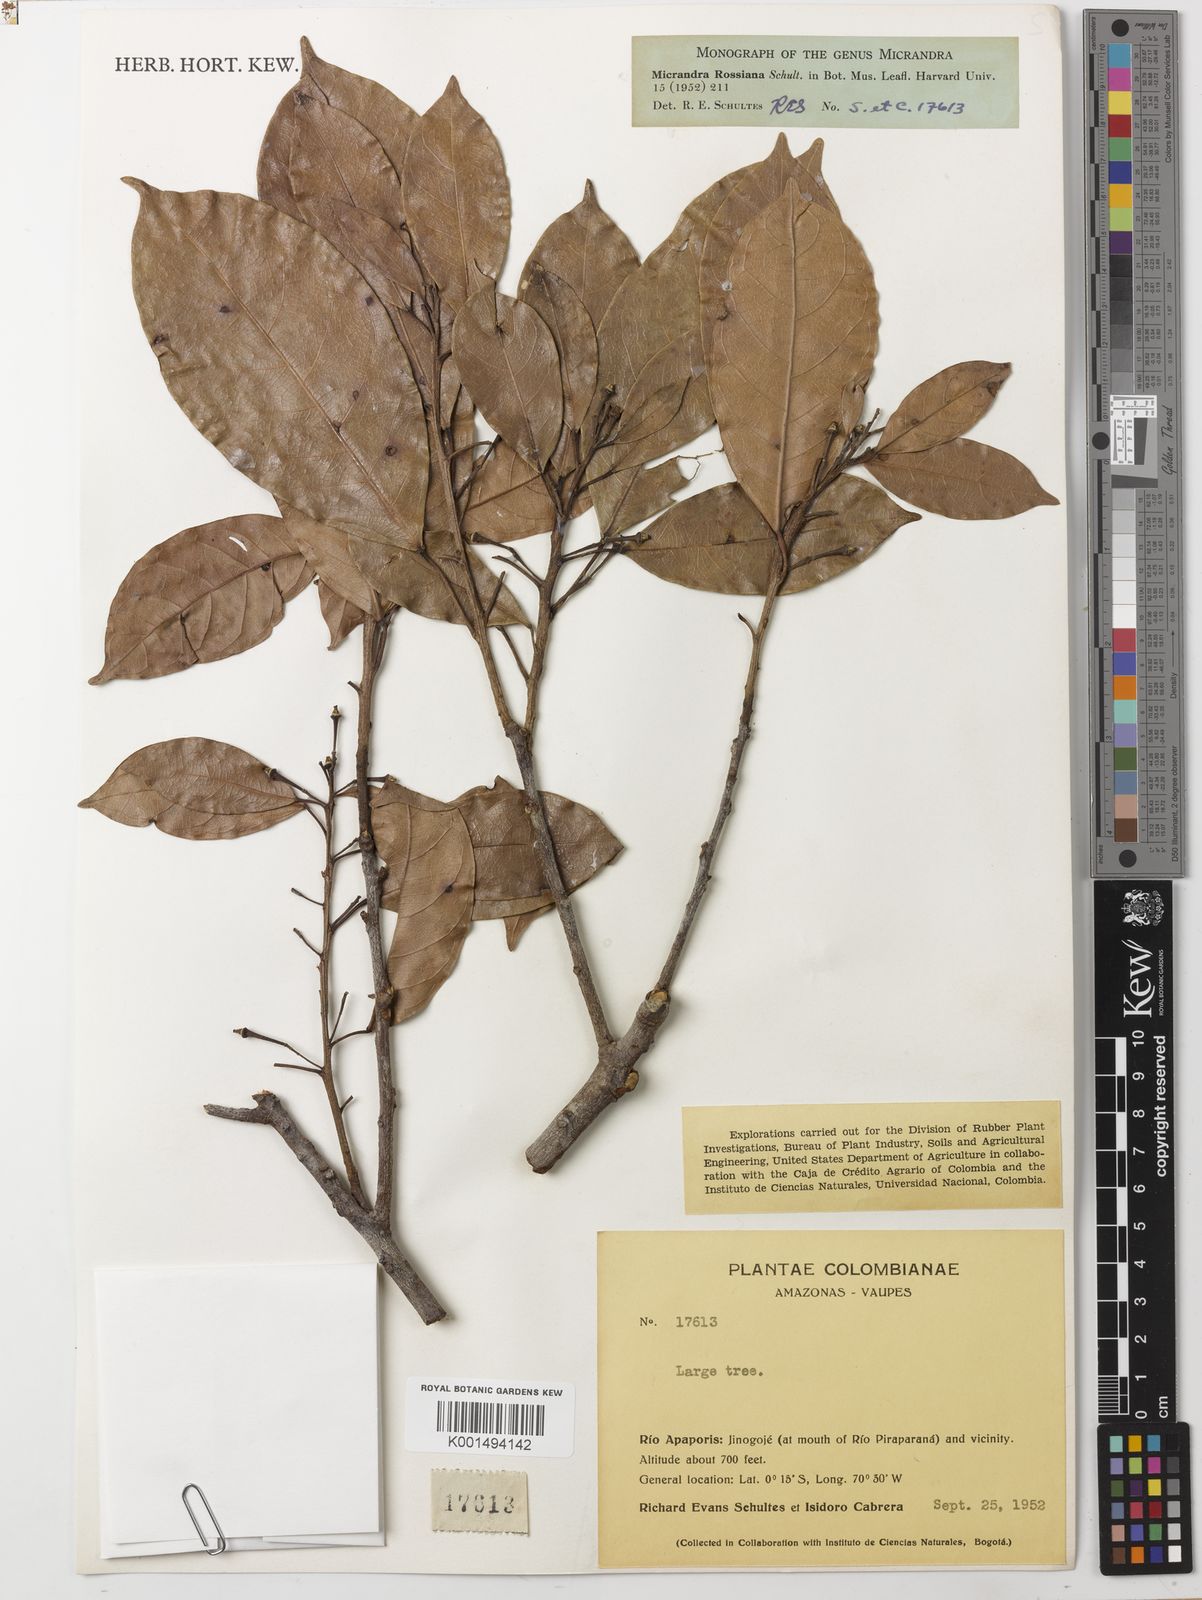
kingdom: Plantae
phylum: Tracheophyta
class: Magnoliopsida
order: Malpighiales
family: Euphorbiaceae
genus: Micrandra
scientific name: Micrandra rossiana
